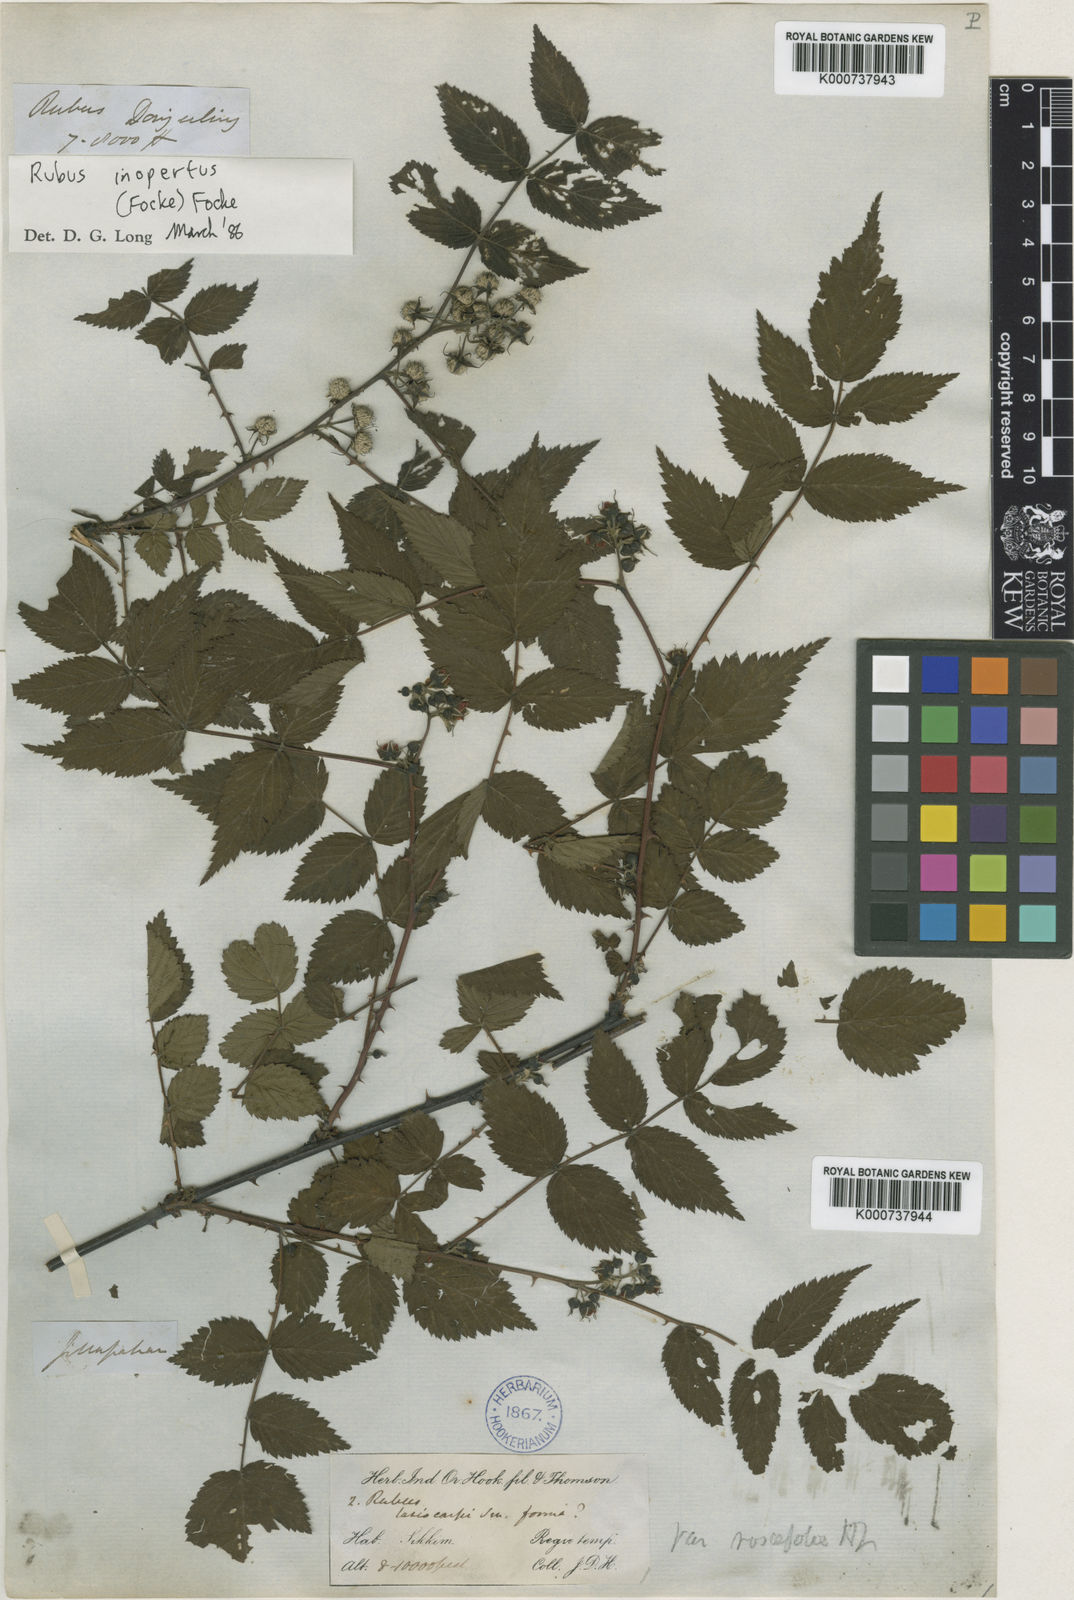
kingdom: Plantae
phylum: Tracheophyta
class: Magnoliopsida
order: Rosales
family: Rosaceae
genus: Rubus
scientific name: Rubus niveus
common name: Snowpeaks raspberry
